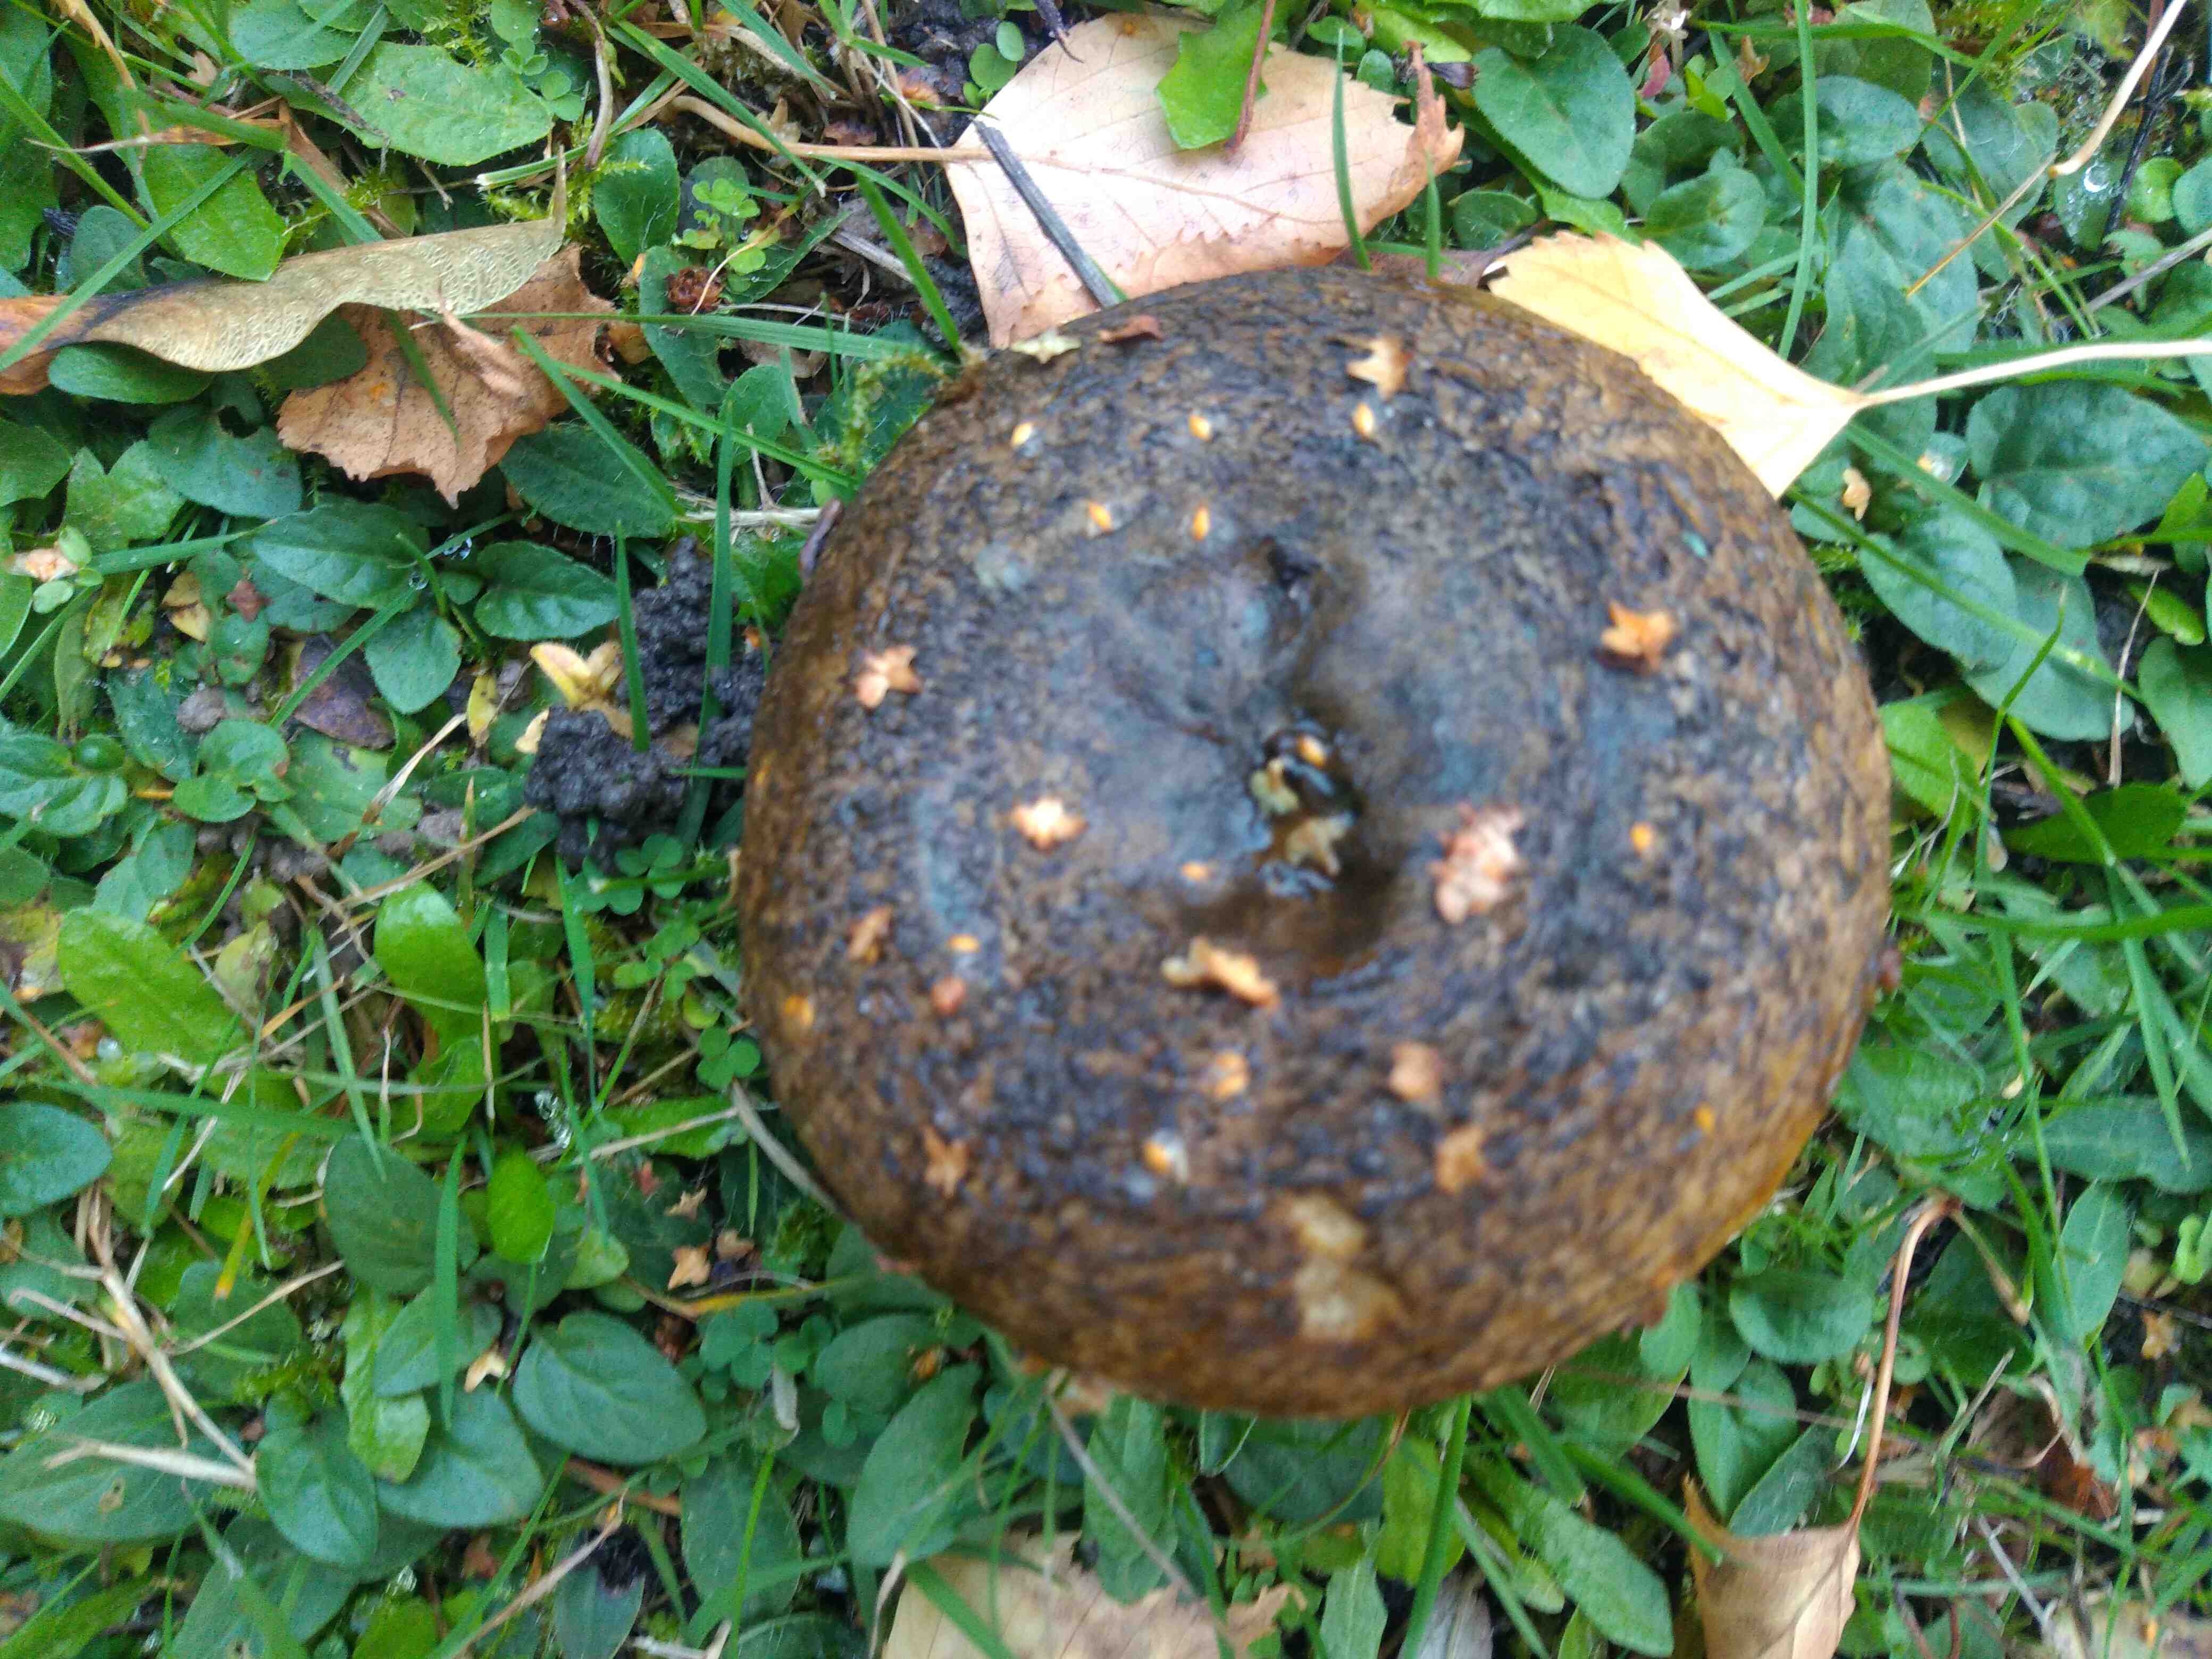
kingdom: Fungi
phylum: Basidiomycota
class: Agaricomycetes
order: Russulales
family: Russulaceae
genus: Lactarius
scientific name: Lactarius necator
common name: manddraber-mælkehat
